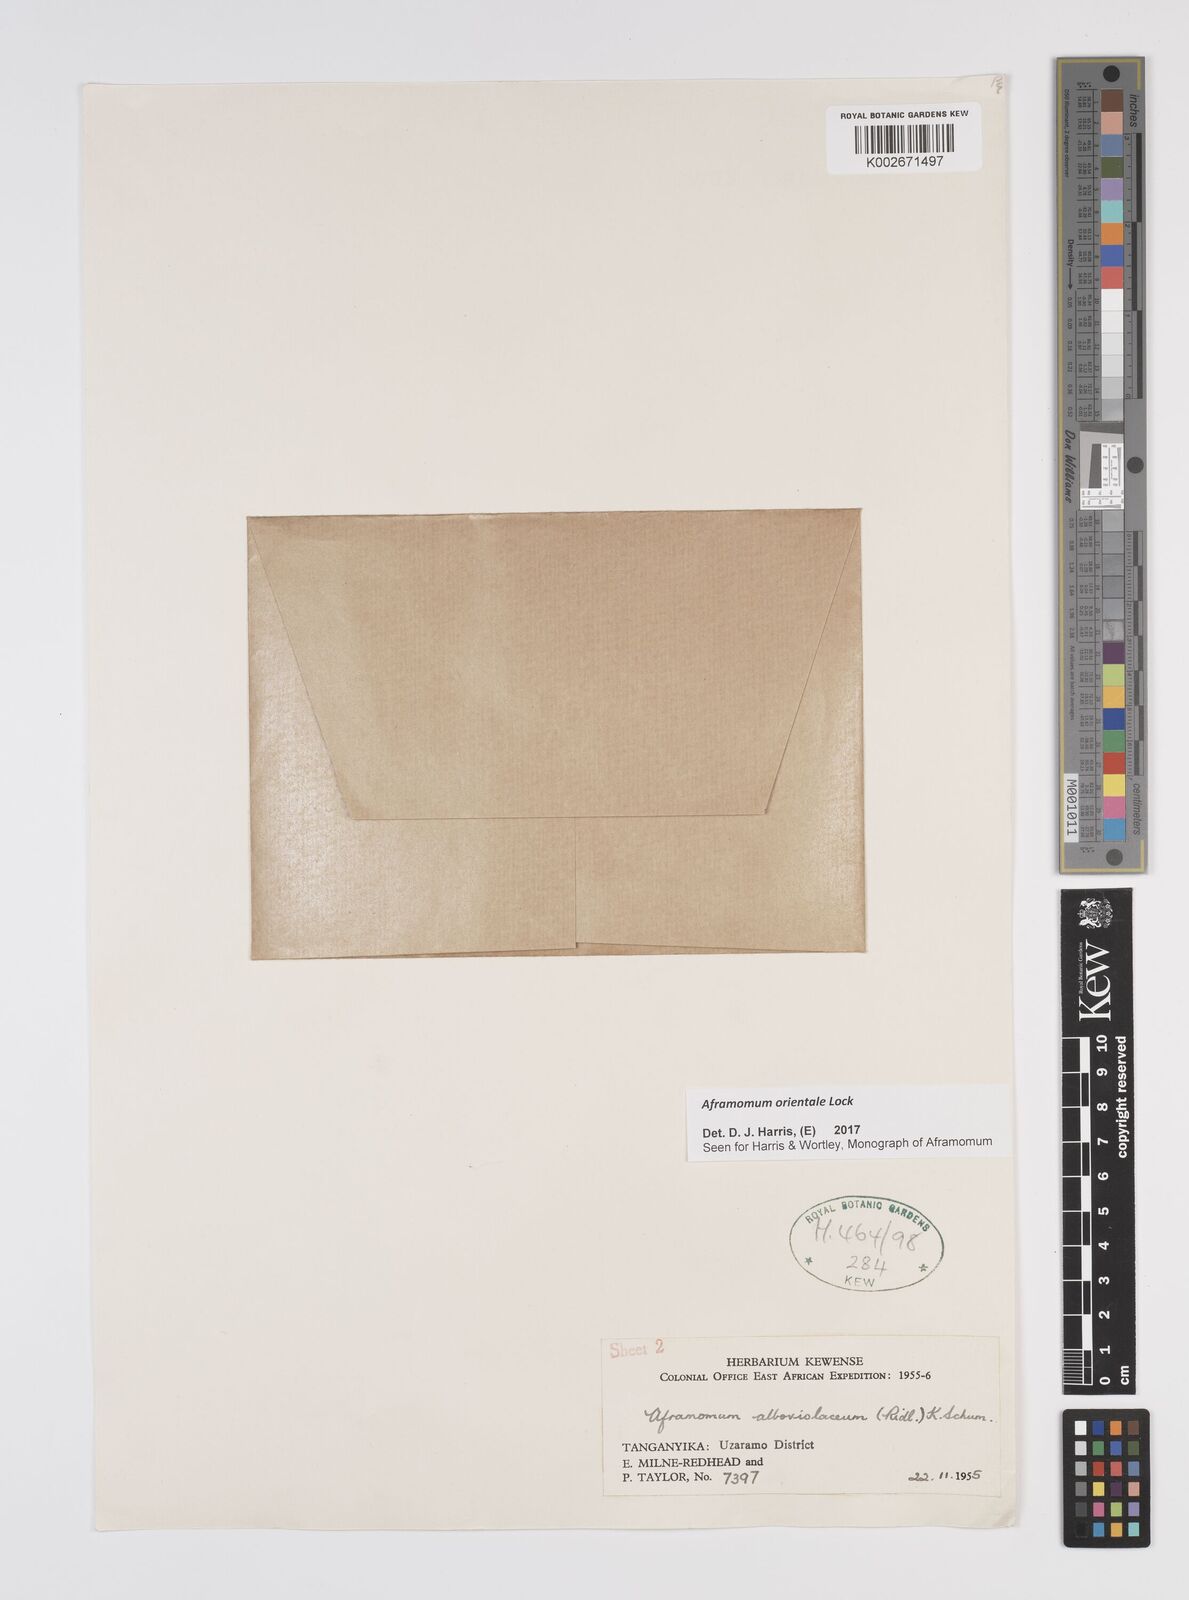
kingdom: Plantae
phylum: Tracheophyta
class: Liliopsida
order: Zingiberales
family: Zingiberaceae
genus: Aframomum
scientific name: Aframomum orientale
